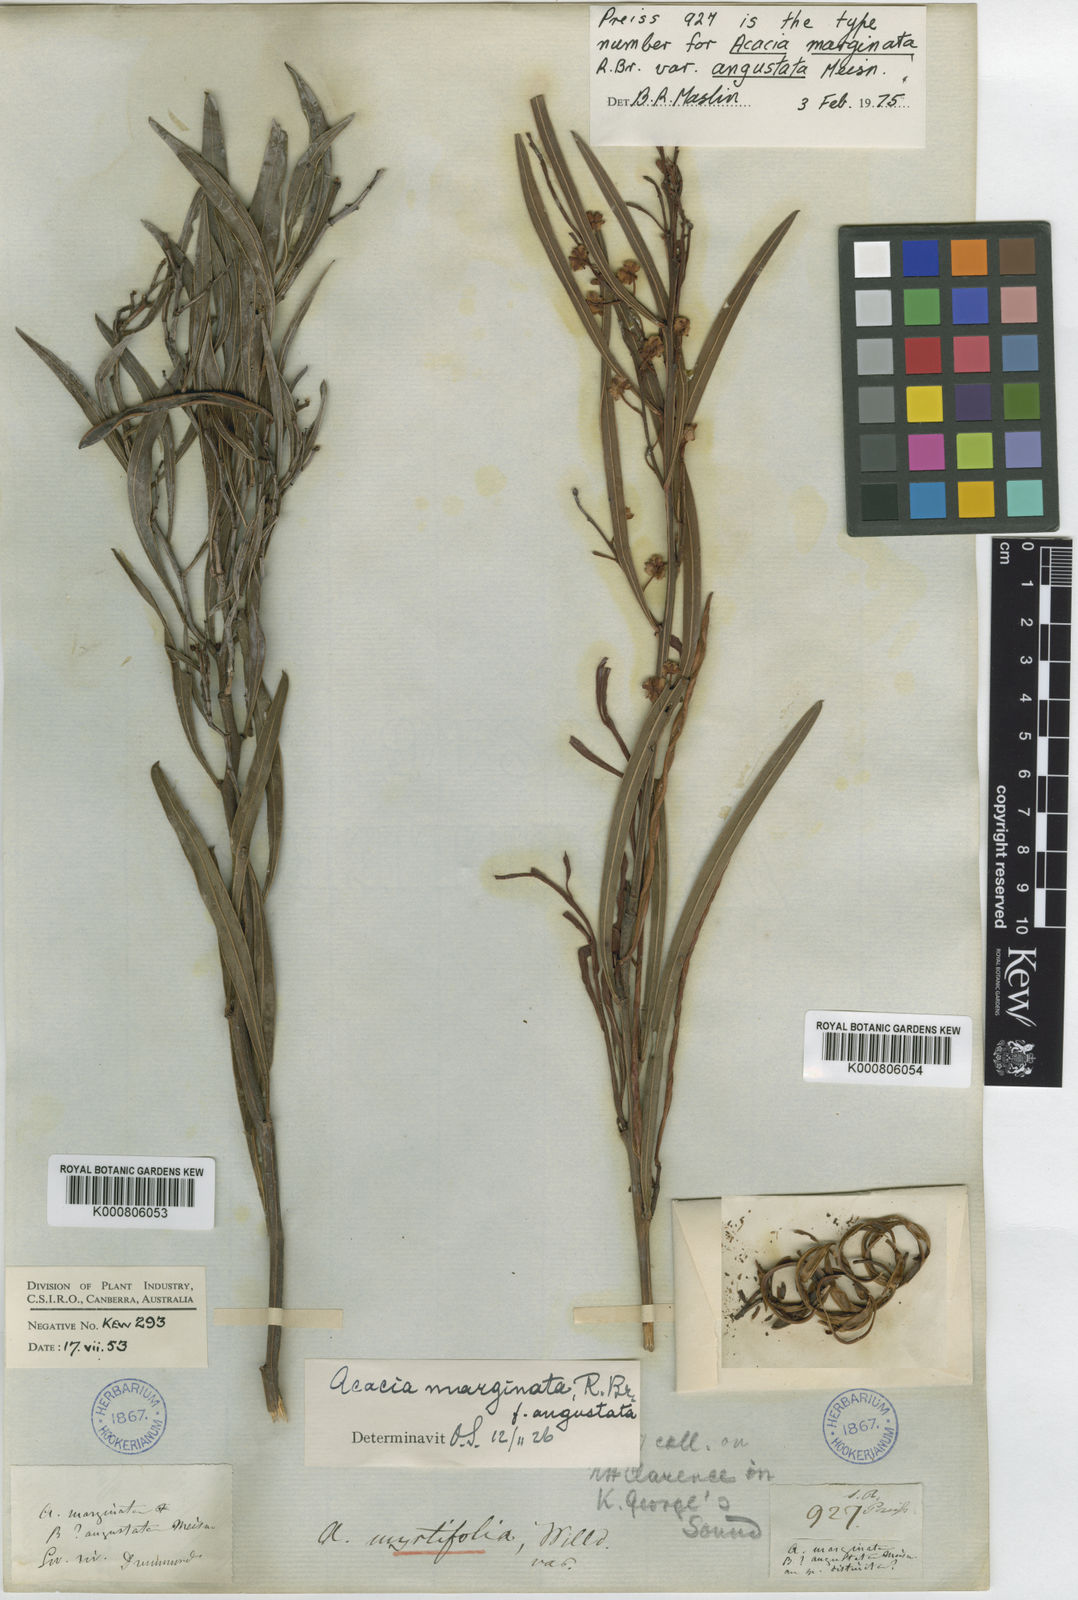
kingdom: Plantae
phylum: Tracheophyta
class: Magnoliopsida
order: Fabales
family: Fabaceae
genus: Acacia
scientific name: Acacia myrtifolia
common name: Myrtle wattle
